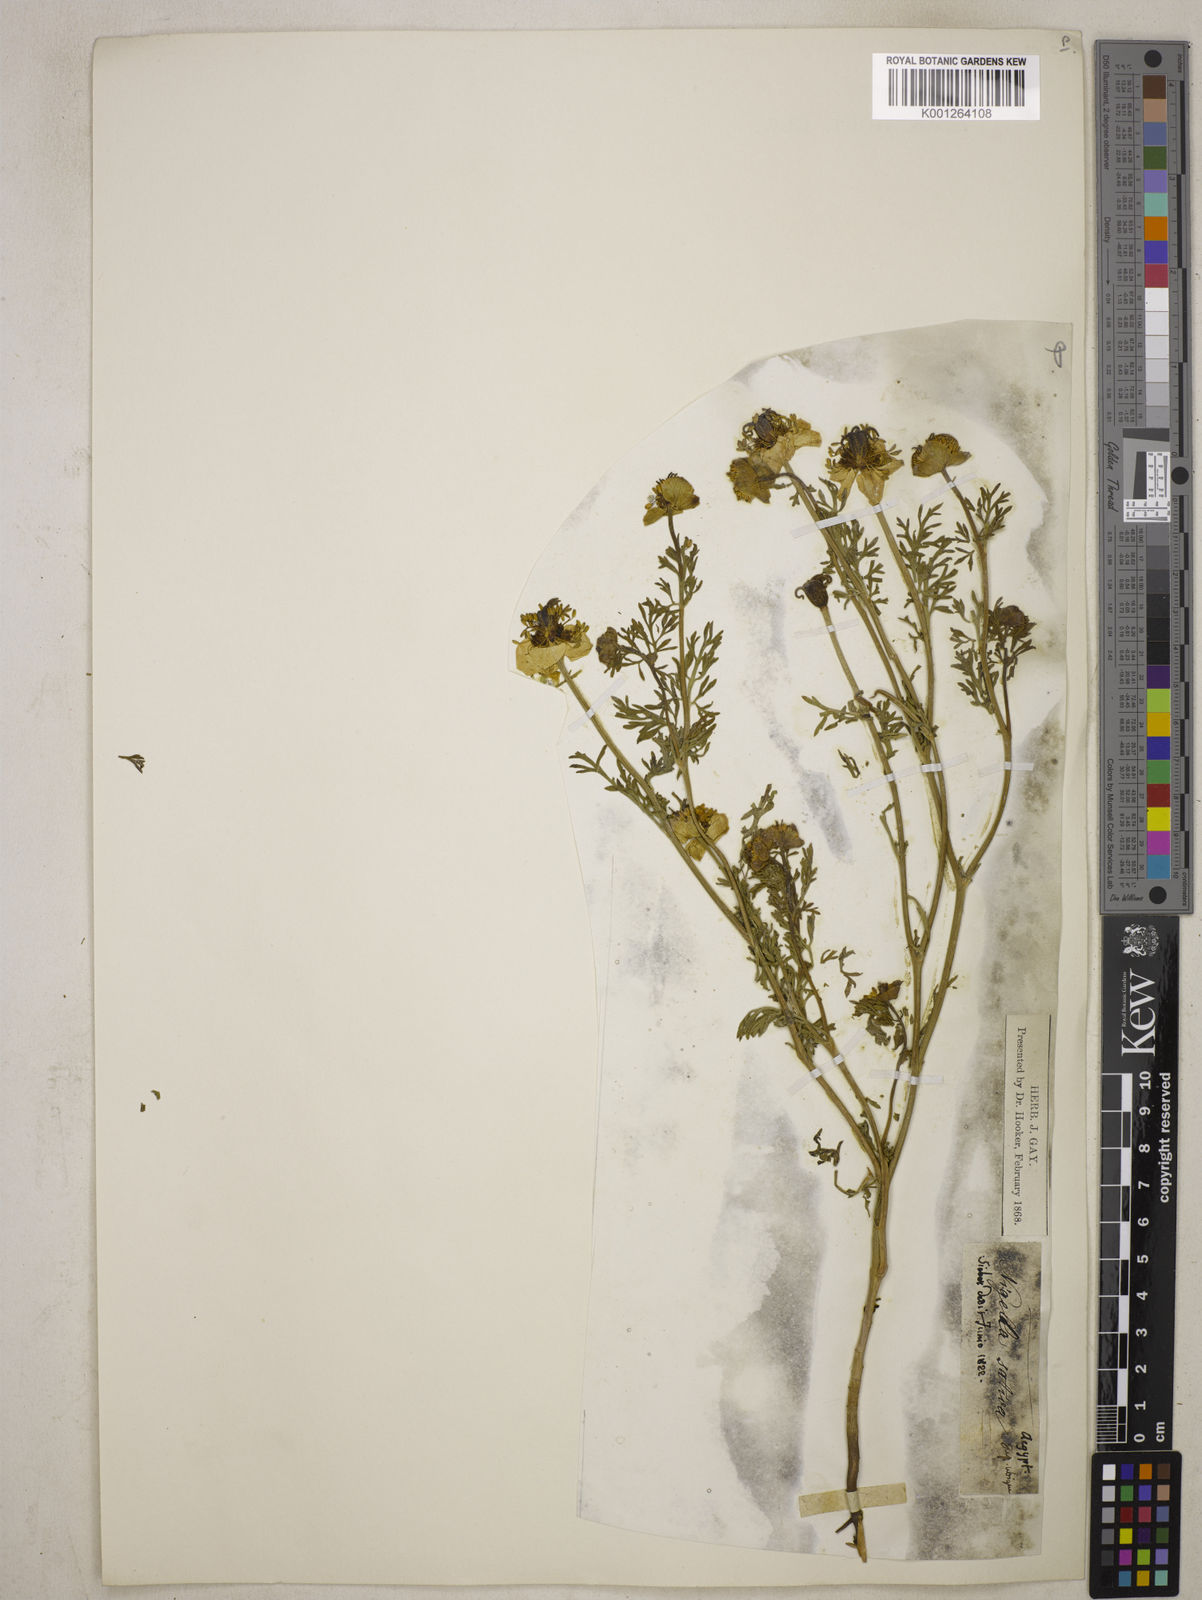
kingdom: Plantae
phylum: Tracheophyta
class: Magnoliopsida
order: Ranunculales
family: Ranunculaceae
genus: Nigella
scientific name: Nigella sativa
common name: Black-cumin
